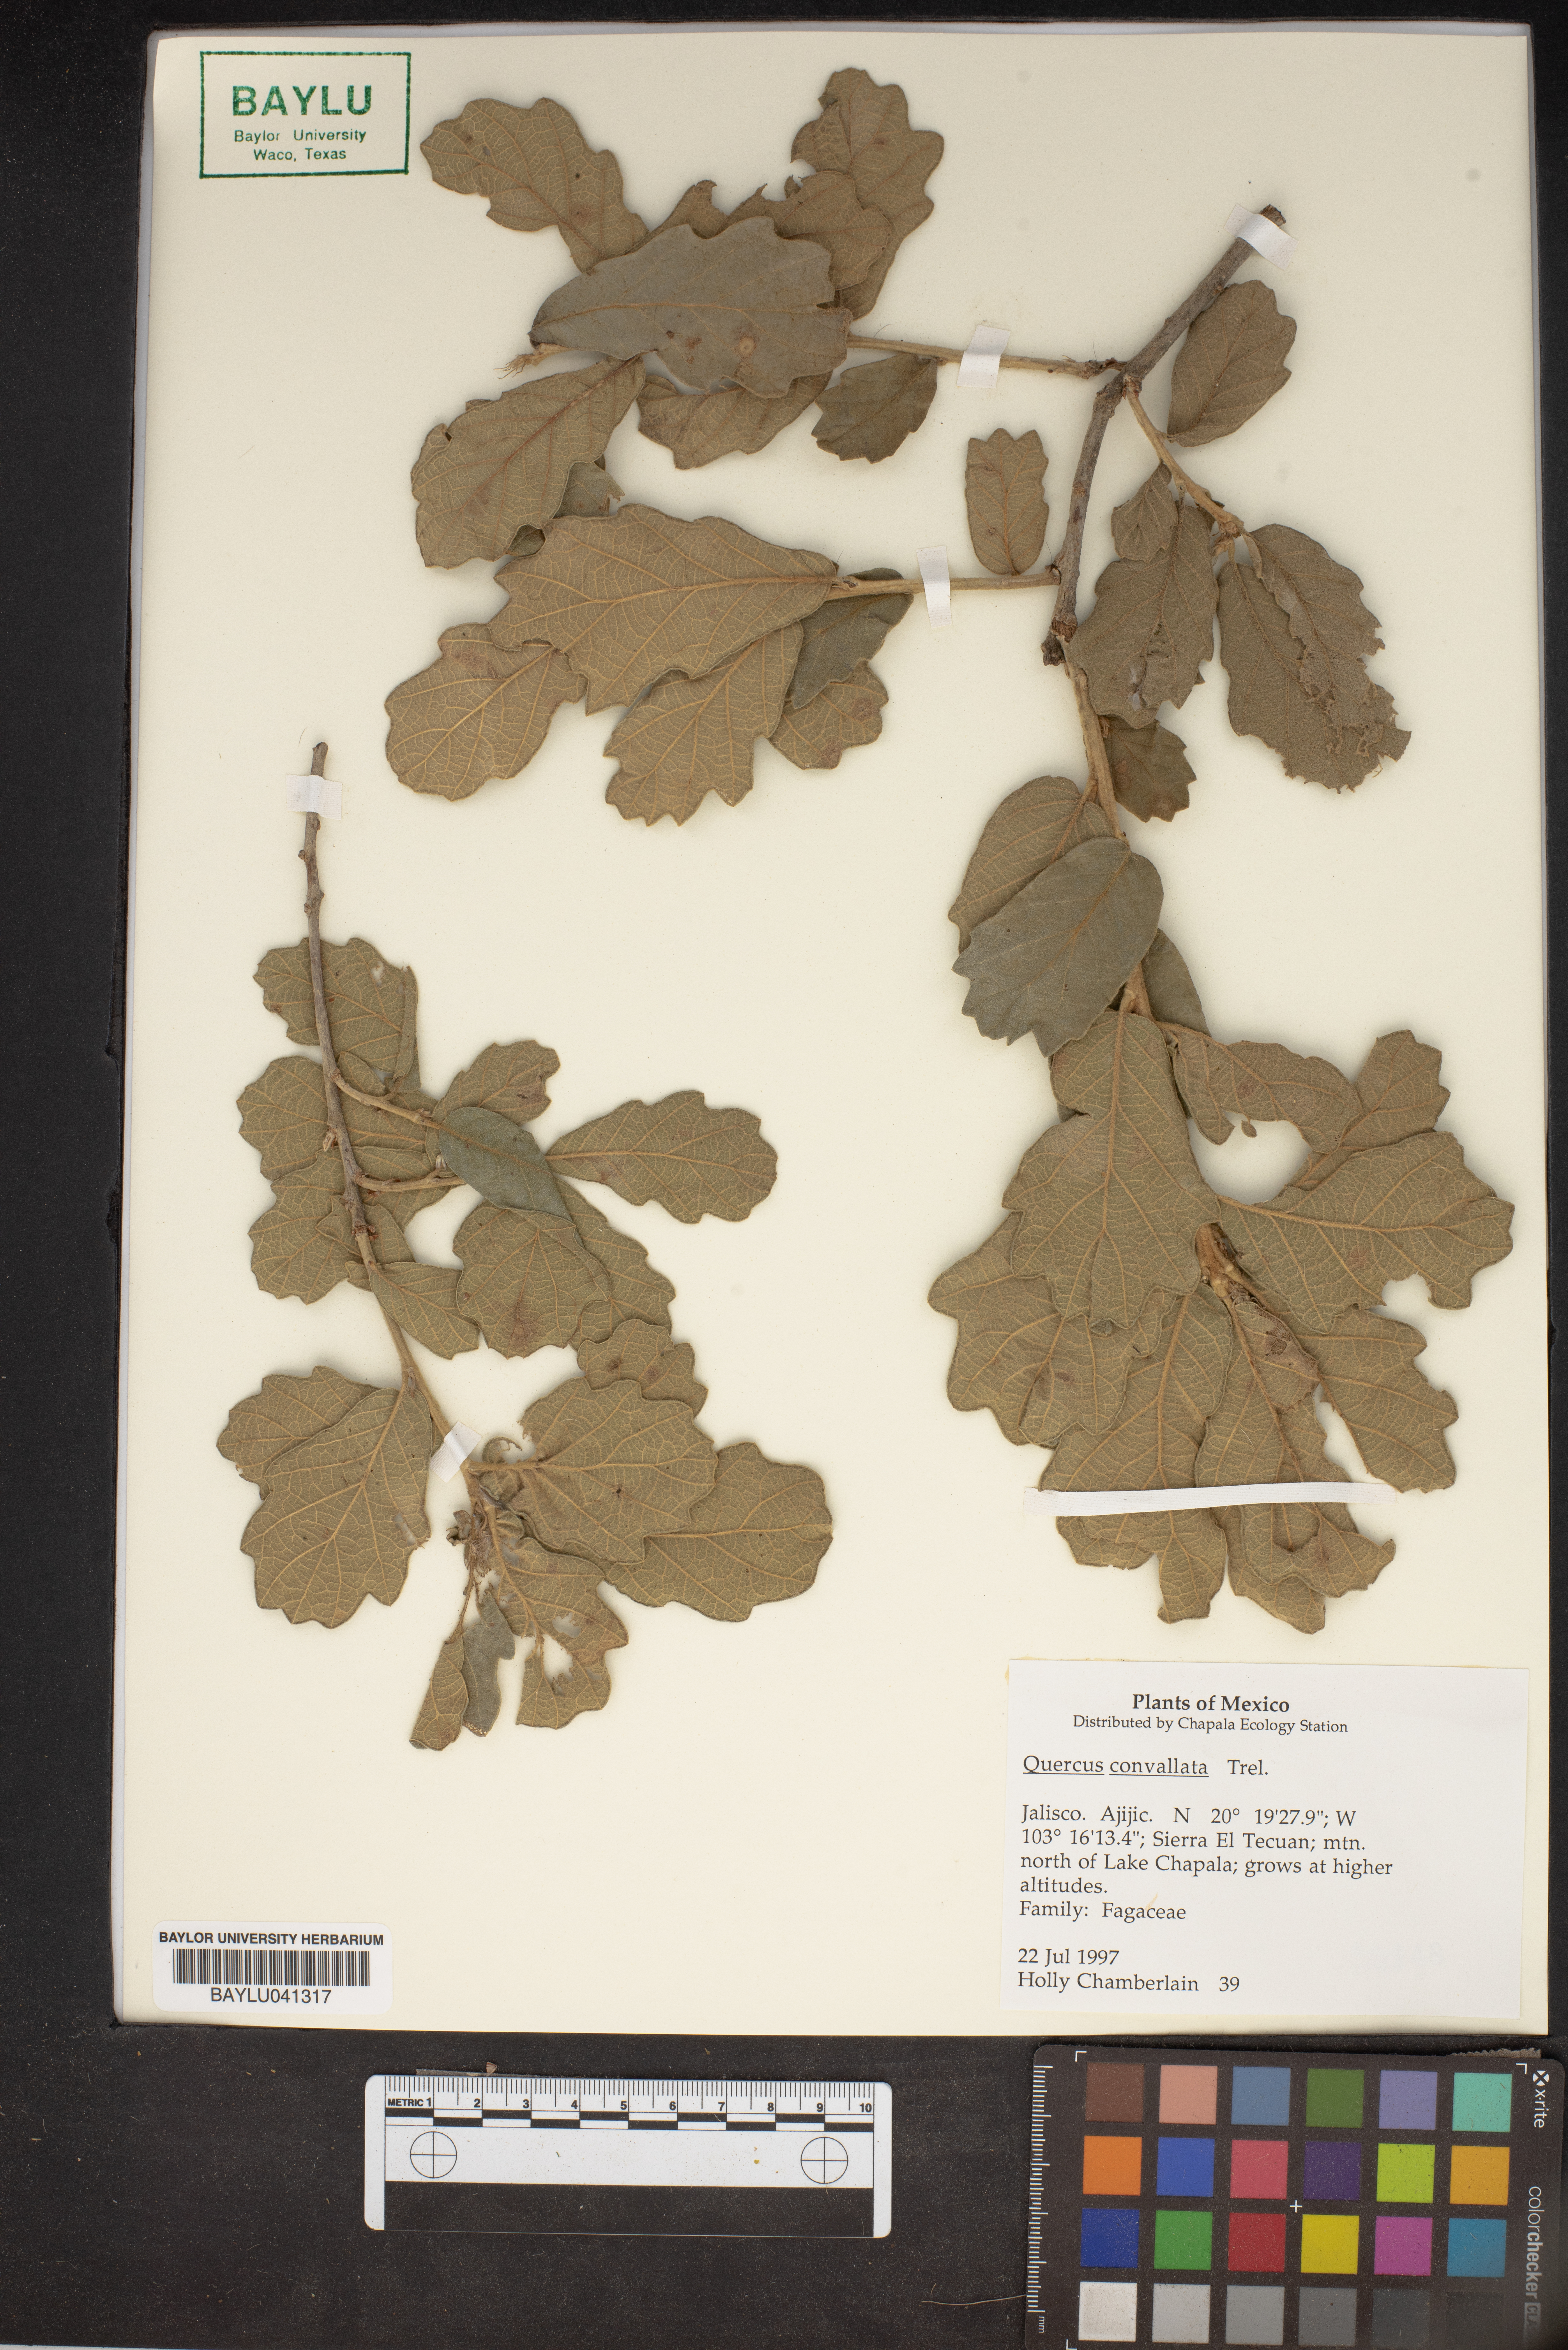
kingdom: Plantae
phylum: Tracheophyta
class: Magnoliopsida
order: Fagales
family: Fagaceae
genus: Quercus
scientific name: Quercus convallata
